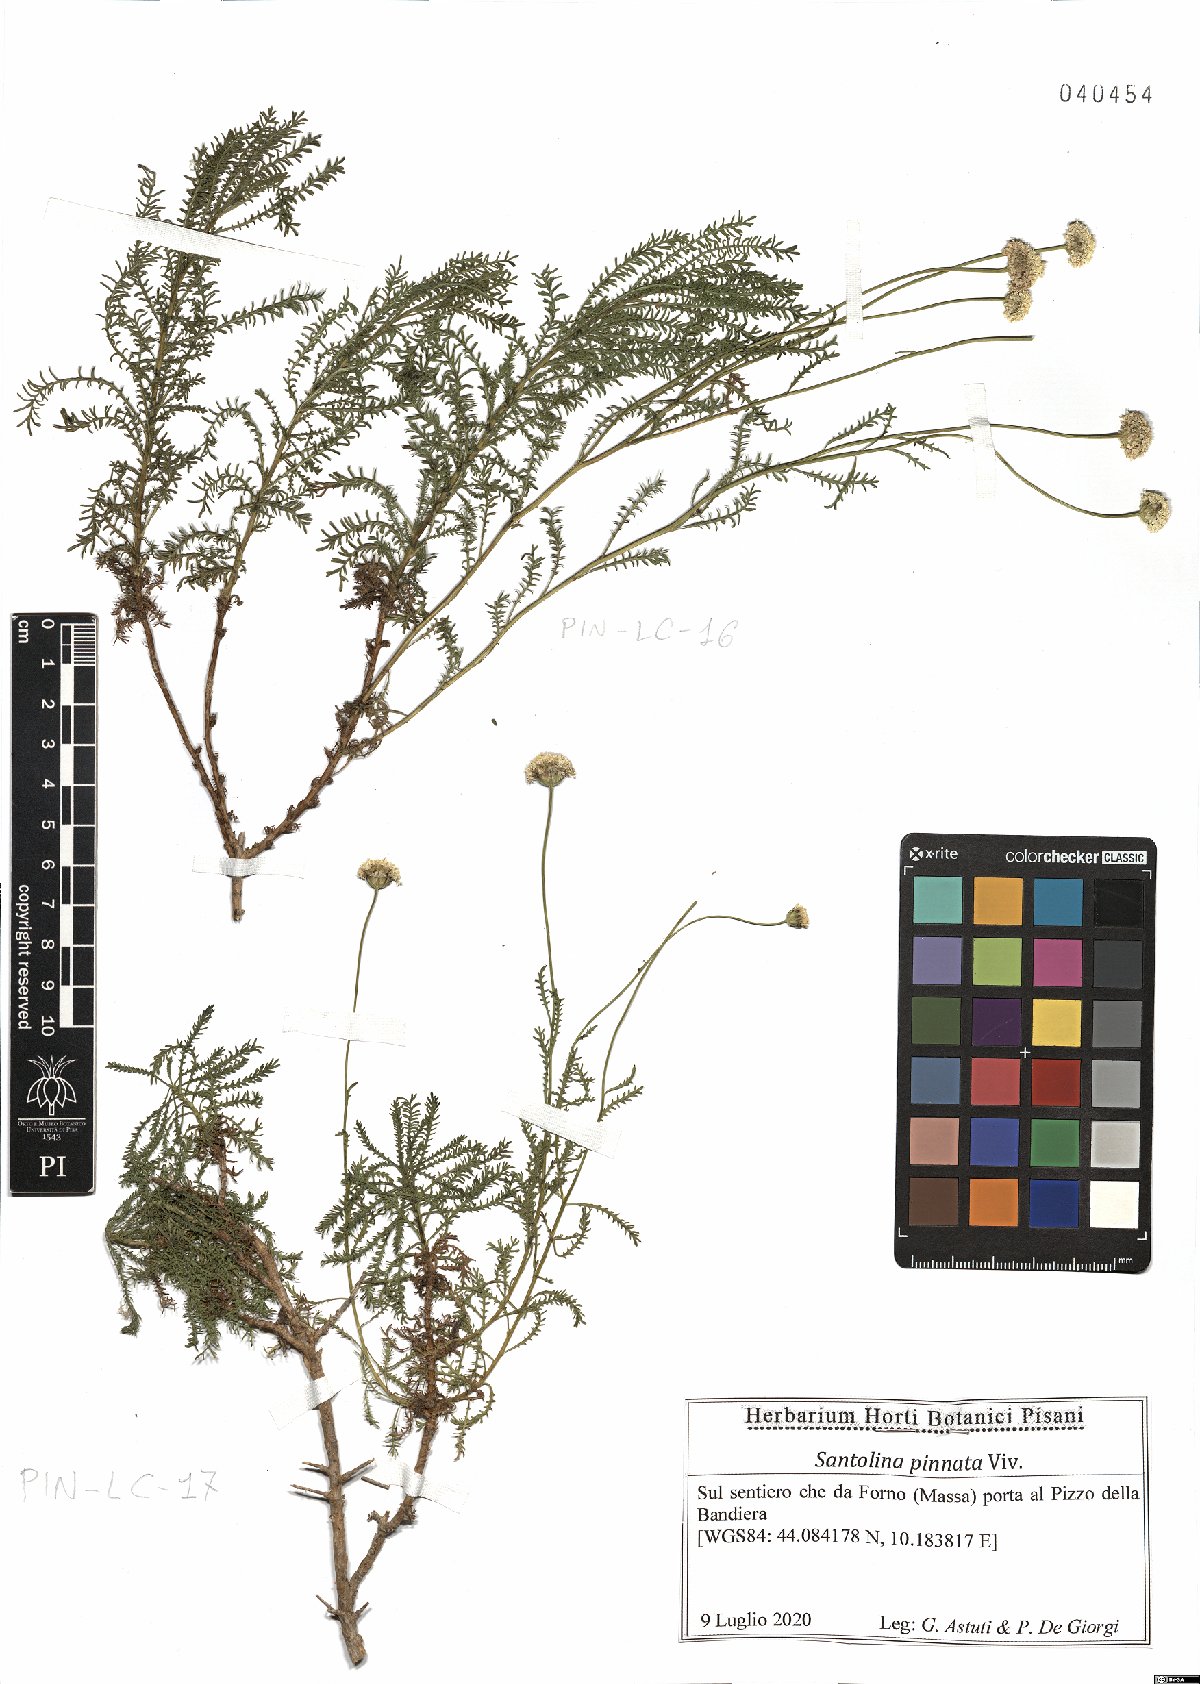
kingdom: Plantae
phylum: Tracheophyta
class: Magnoliopsida
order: Asterales
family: Asteraceae
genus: Santolina
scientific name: Santolina pinnata
